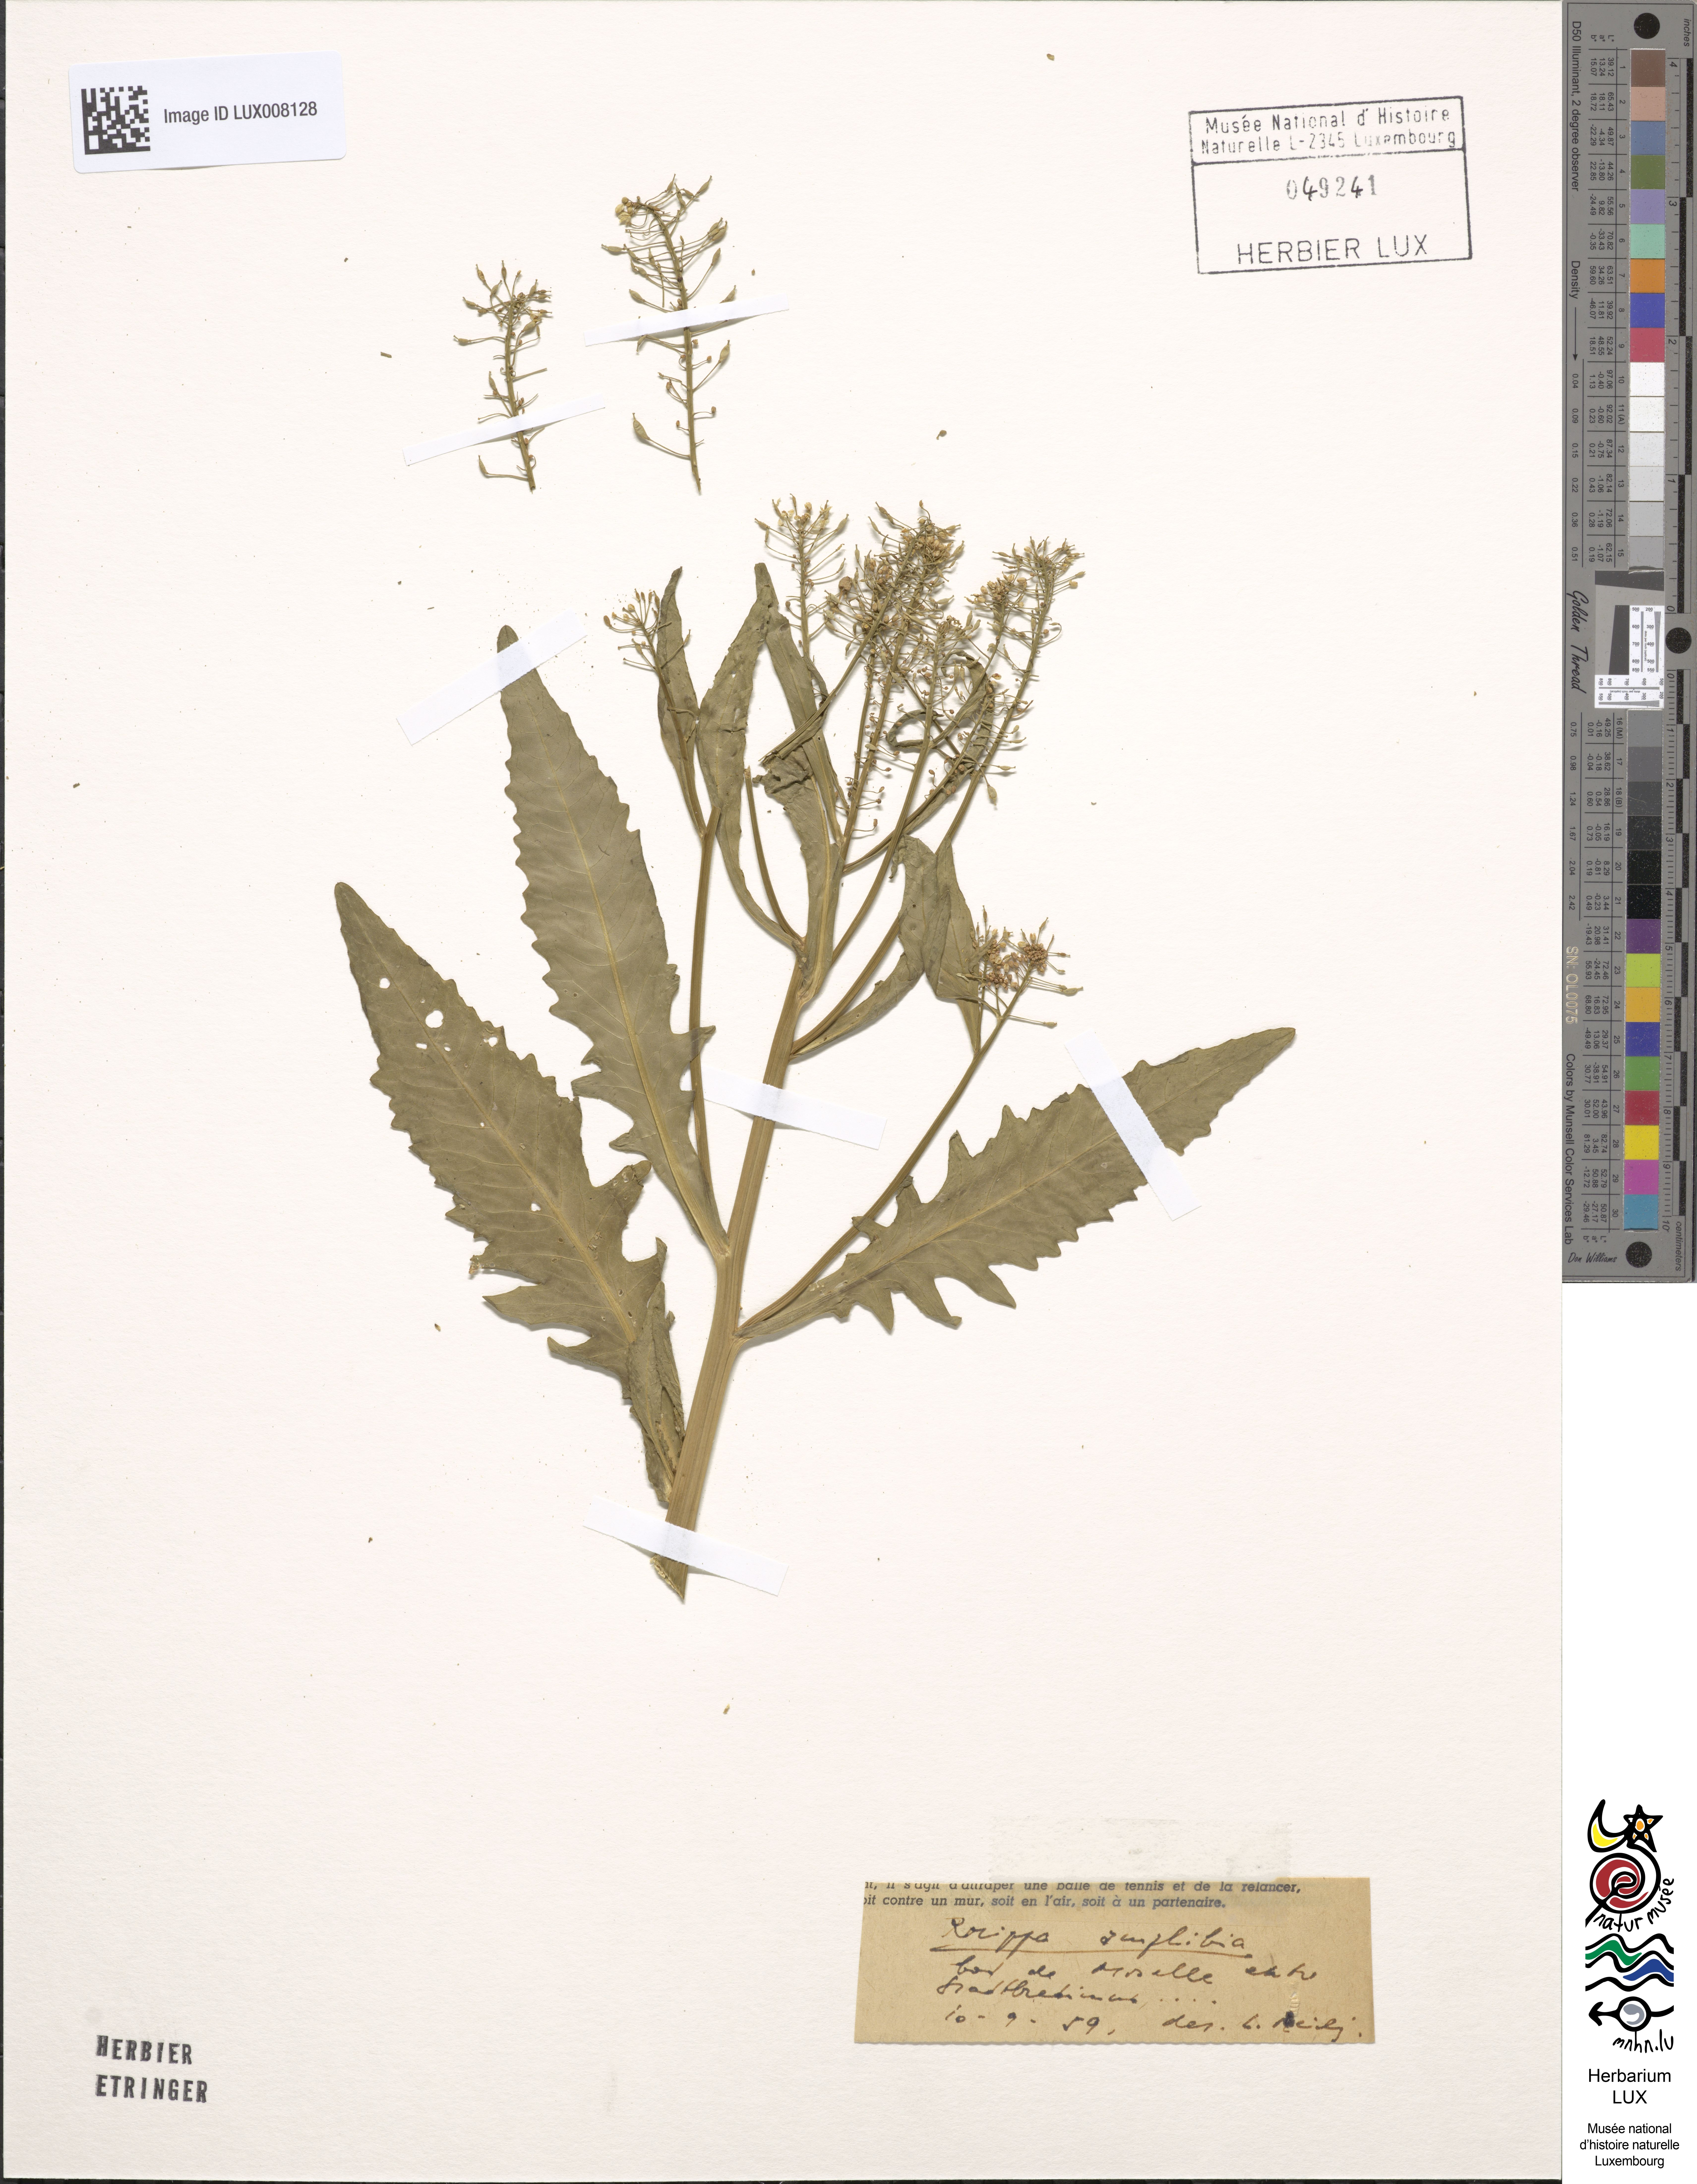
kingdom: Plantae
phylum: Tracheophyta
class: Magnoliopsida
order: Brassicales
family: Brassicaceae
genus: Rorippa
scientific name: Rorippa amphibia
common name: Great yellow-cress
